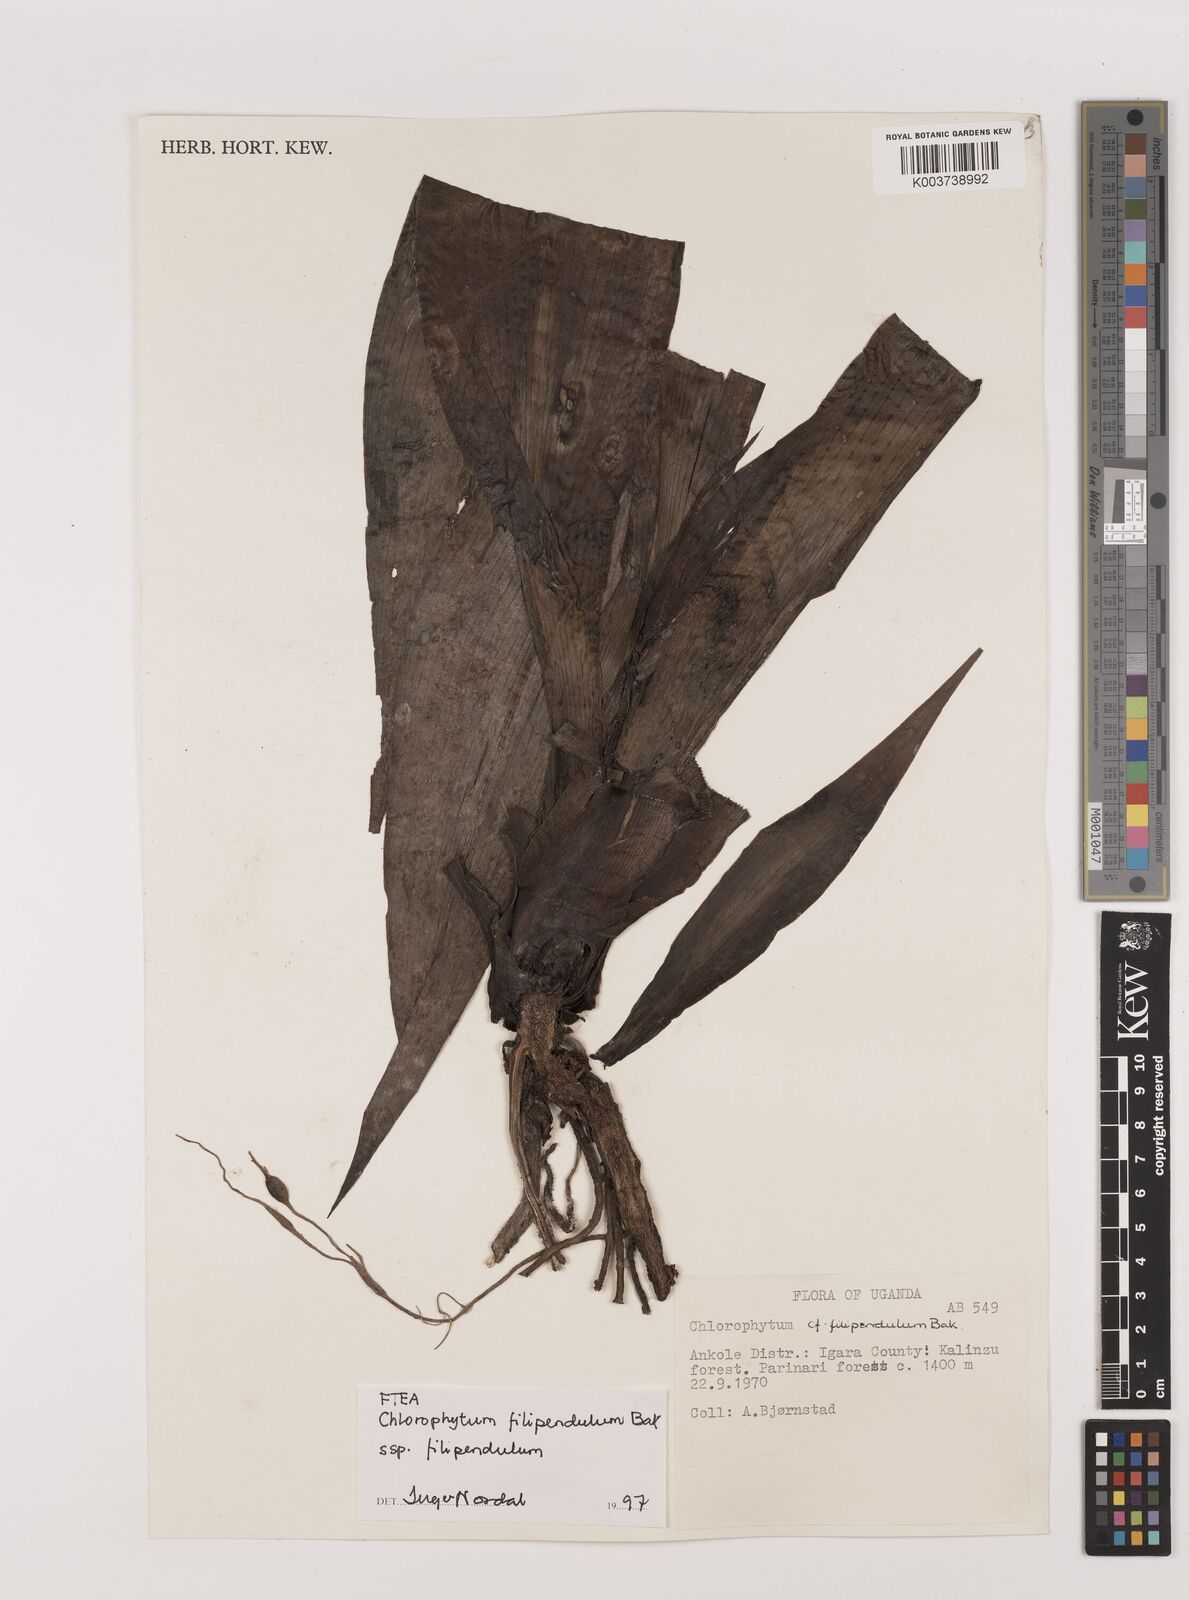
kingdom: Plantae
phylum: Tracheophyta
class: Liliopsida
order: Asparagales
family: Asparagaceae
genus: Chlorophytum
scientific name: Chlorophytum filipendulum
